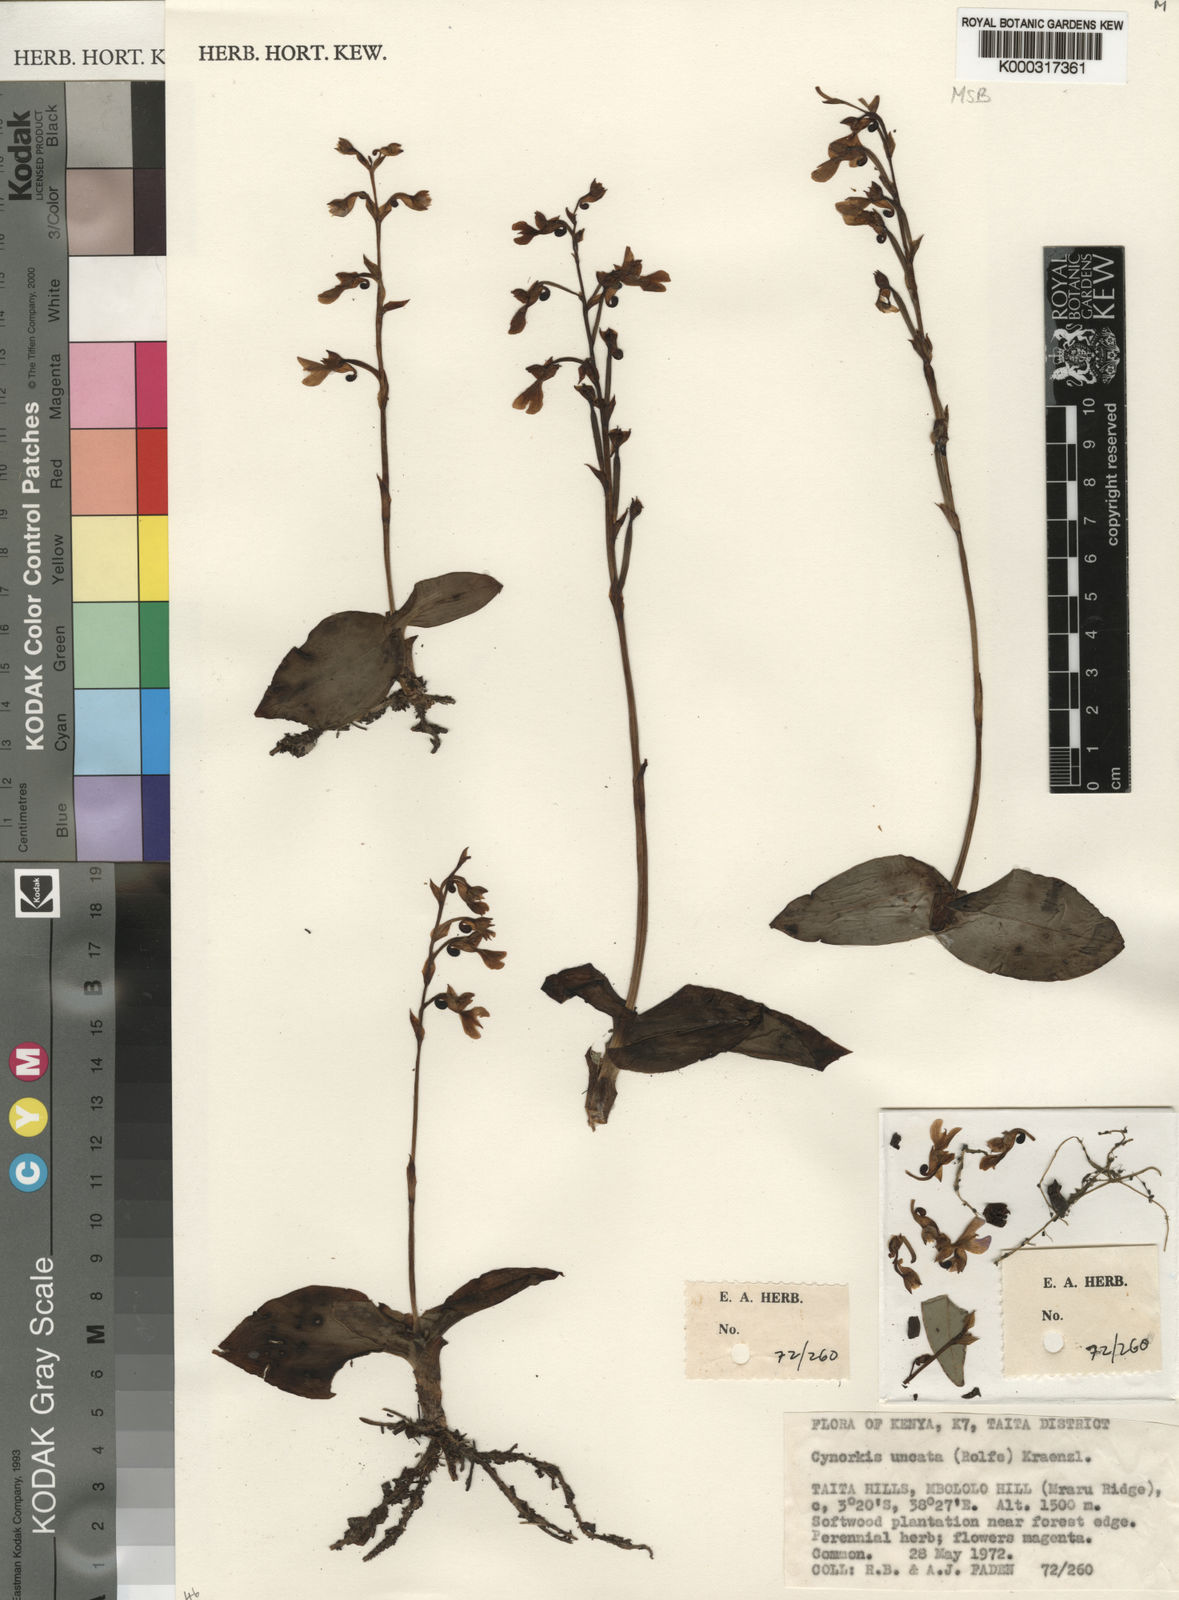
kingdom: Plantae
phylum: Tracheophyta
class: Liliopsida
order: Asparagales
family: Orchidaceae
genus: Cynorkis
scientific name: Cynorkis uncata
